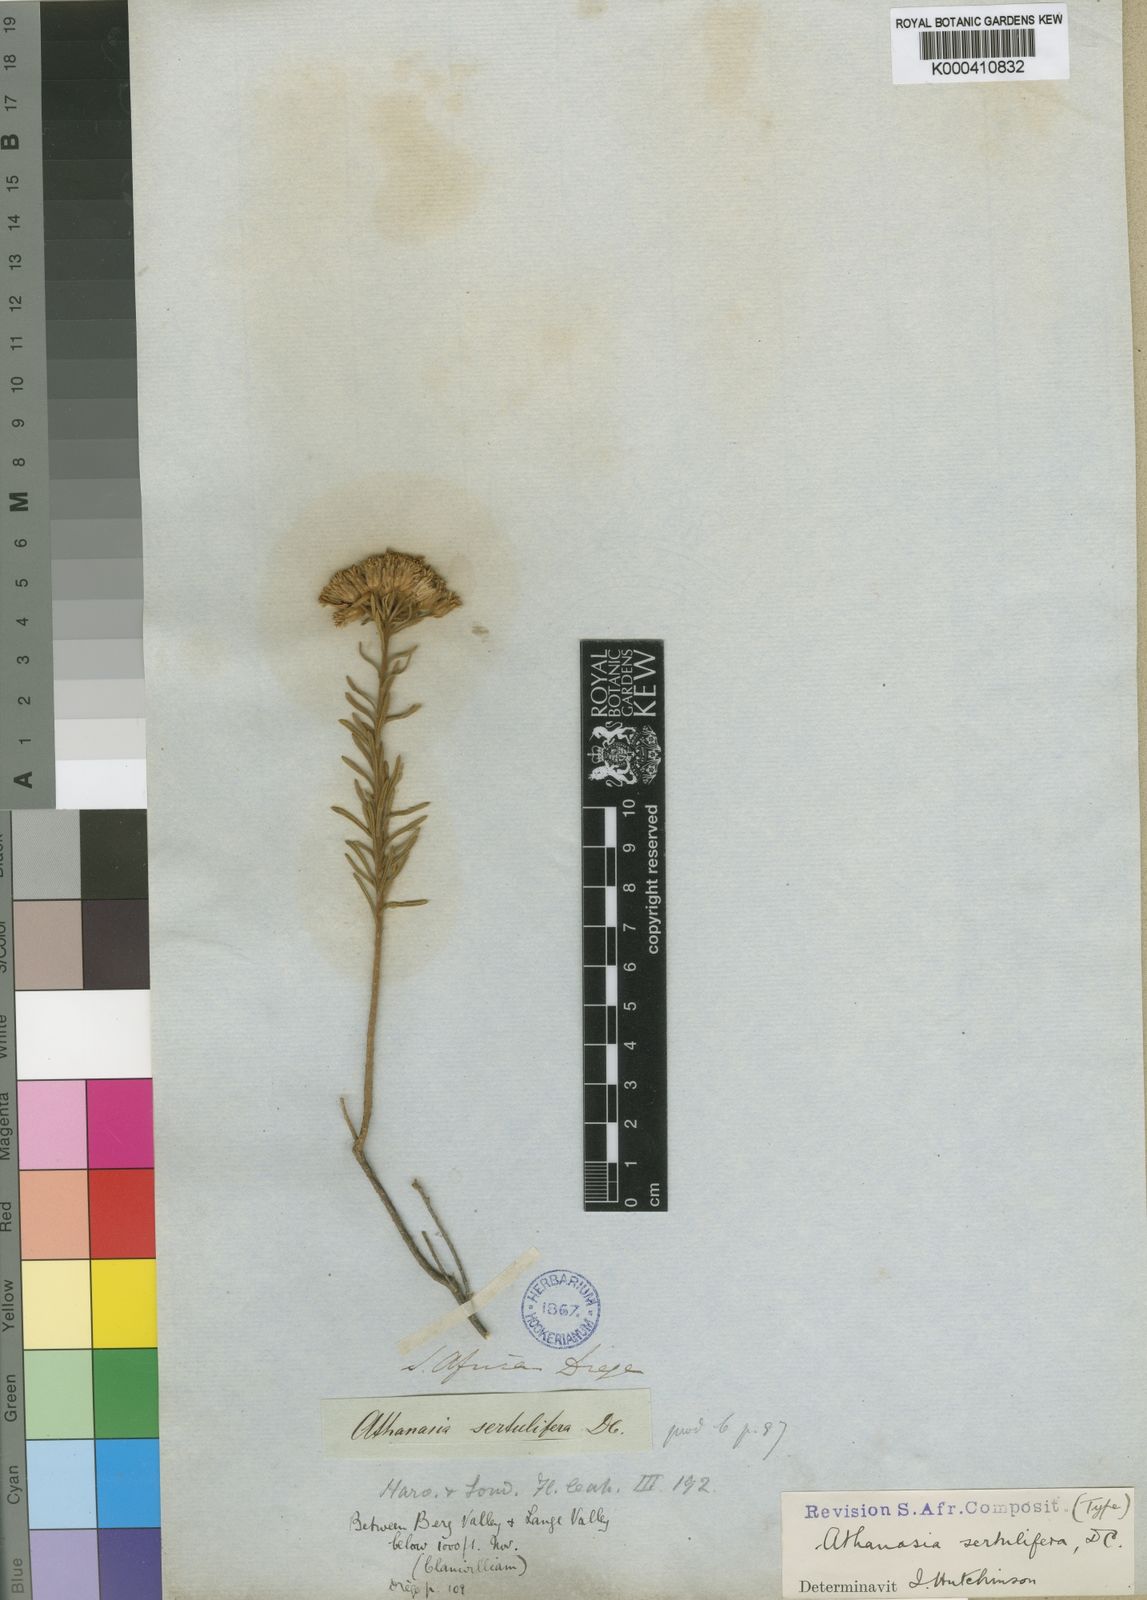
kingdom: Plantae
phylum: Tracheophyta
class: Magnoliopsida
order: Asterales
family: Asteraceae
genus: Athanasia
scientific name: Athanasia sertulifera
